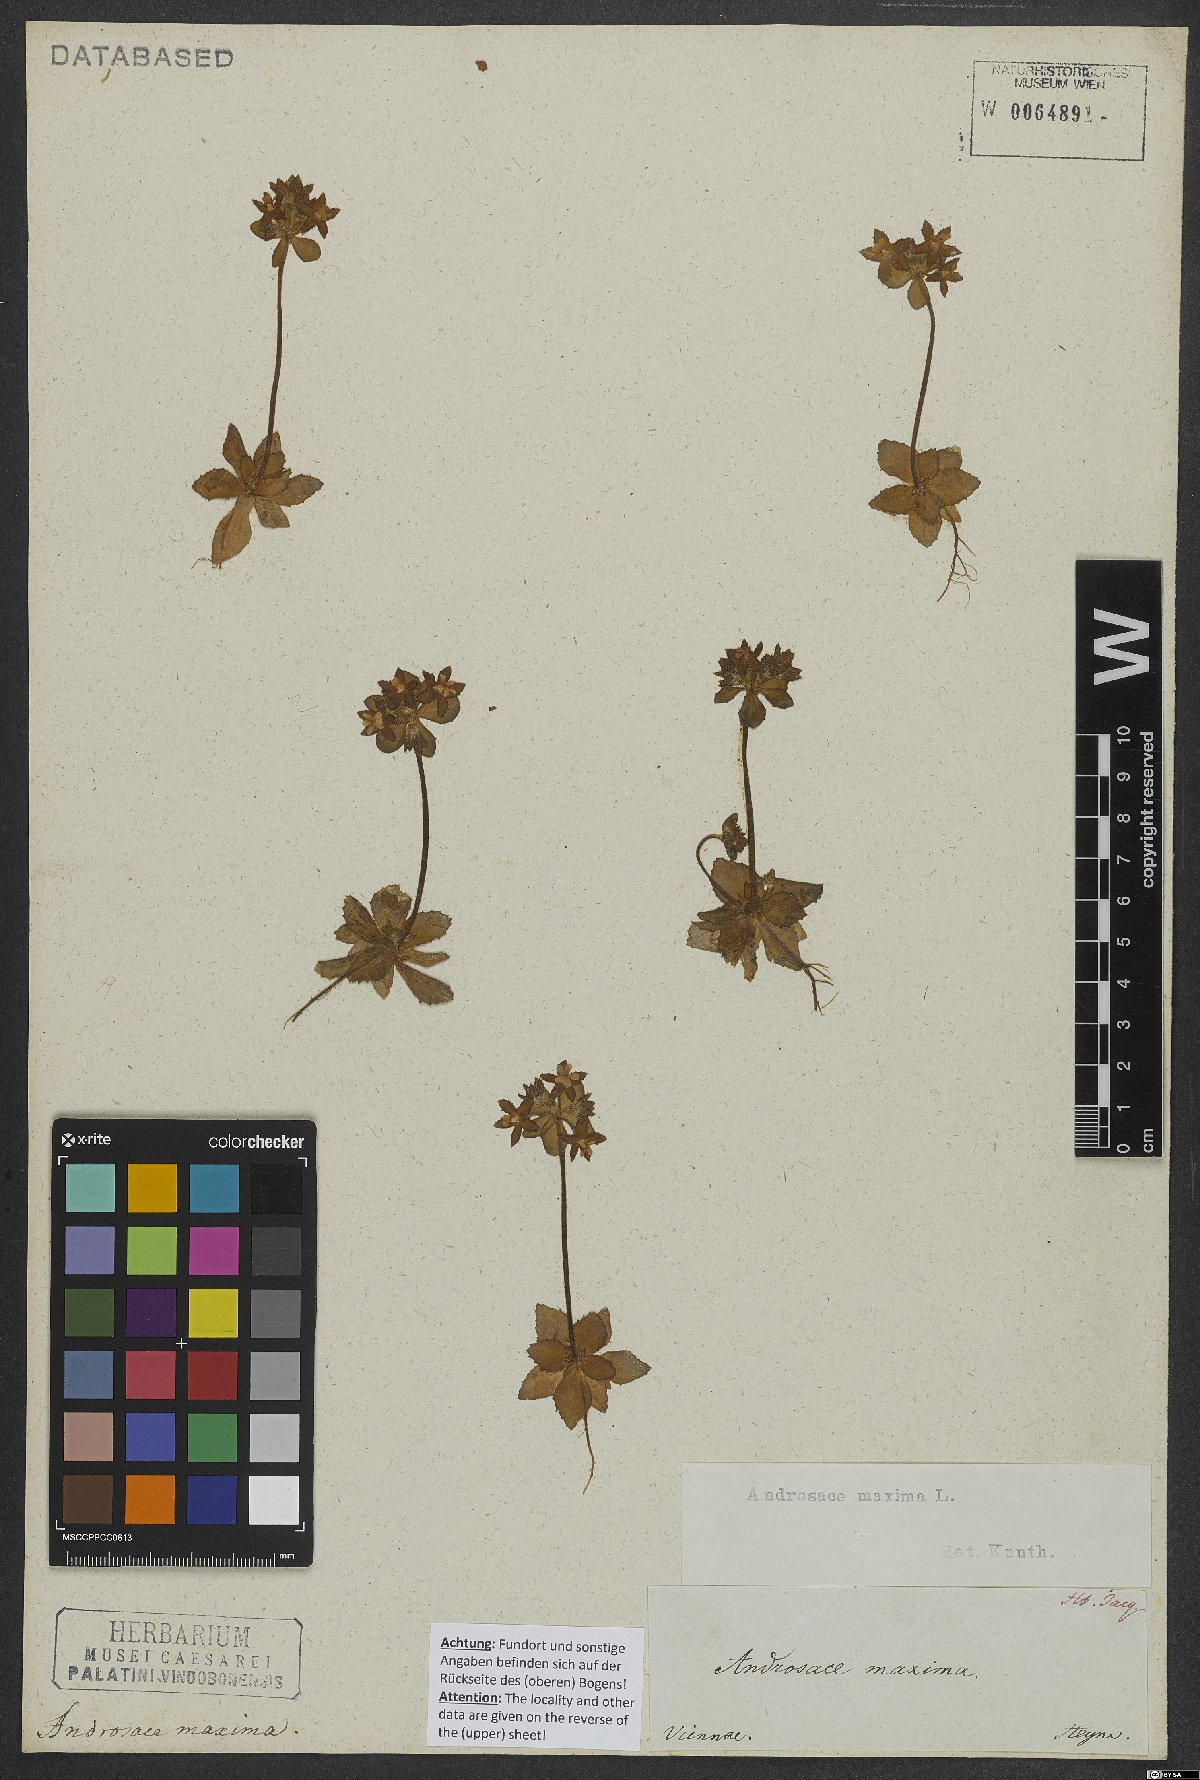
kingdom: Plantae
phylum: Tracheophyta
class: Magnoliopsida
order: Ericales
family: Primulaceae
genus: Androsace
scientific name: Androsace maxima
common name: Annual androsace
